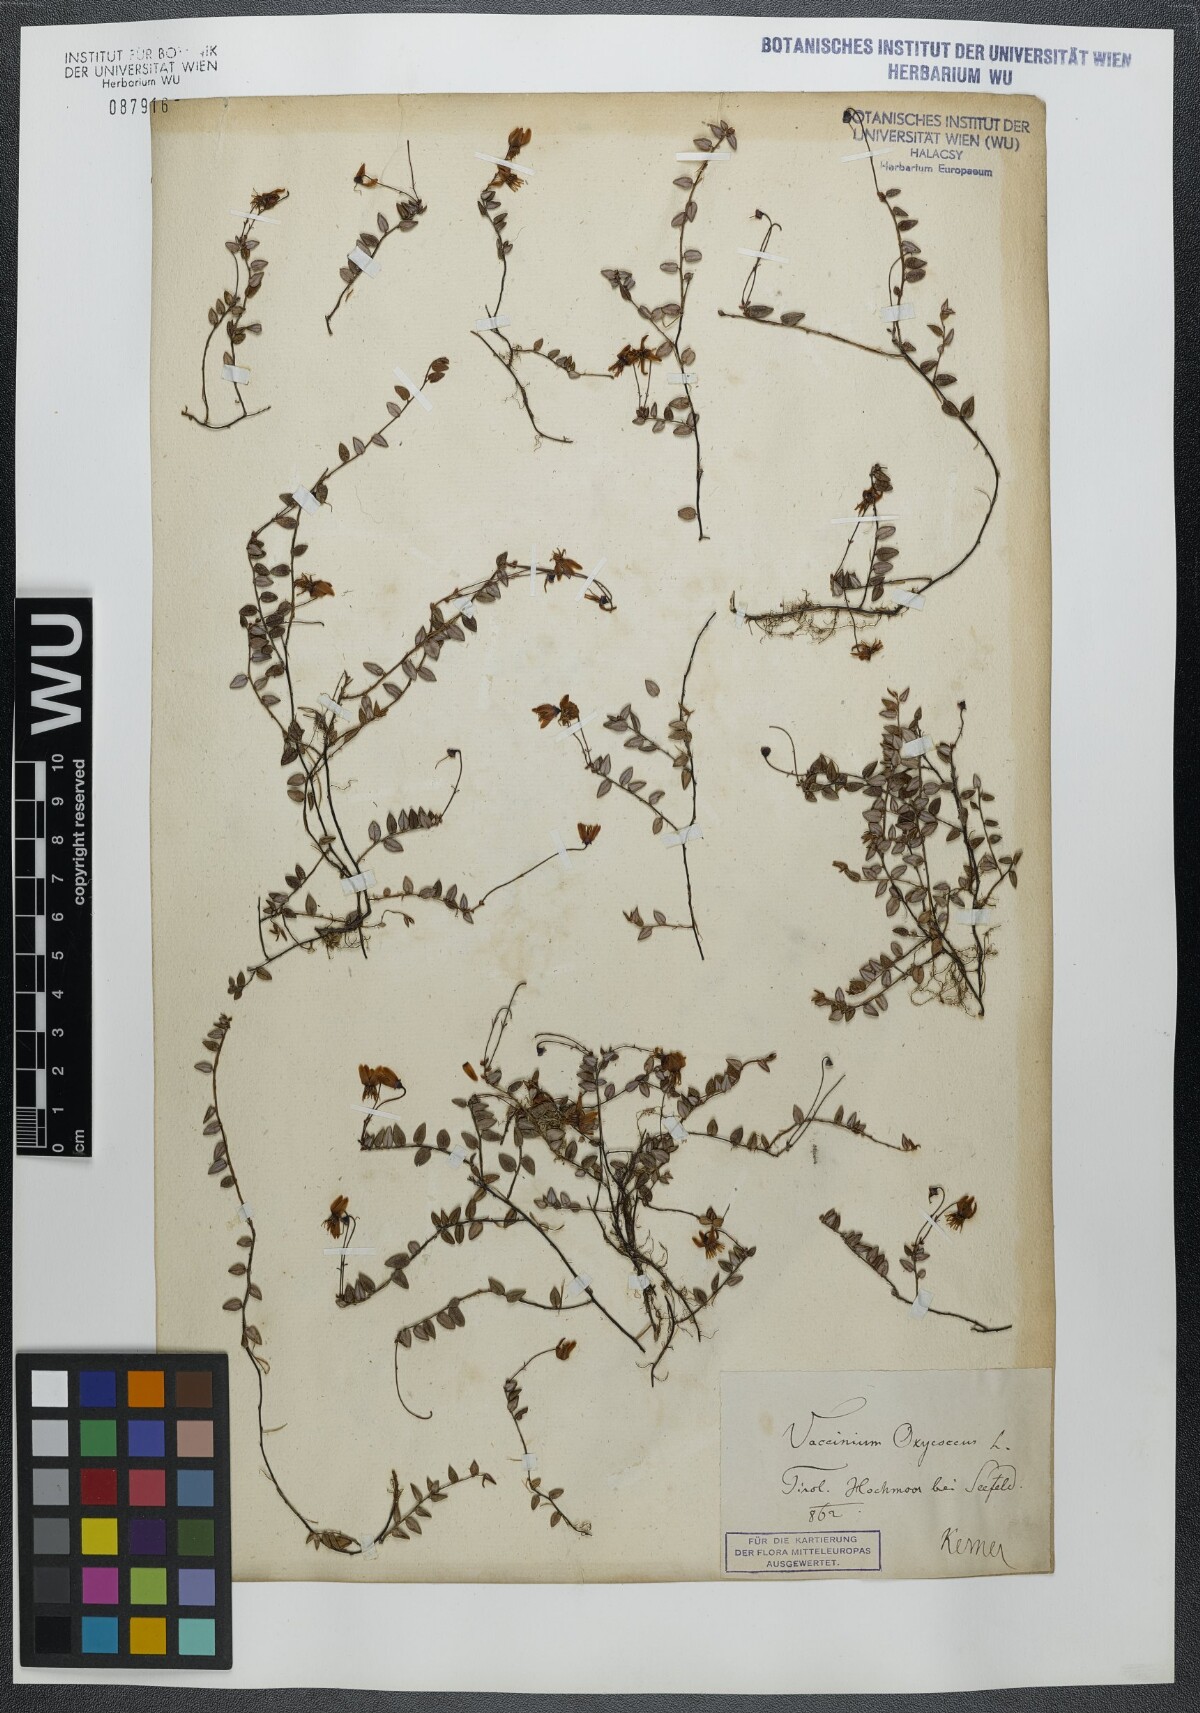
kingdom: Plantae
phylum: Tracheophyta
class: Magnoliopsida
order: Ericales
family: Ericaceae
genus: Vaccinium
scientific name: Vaccinium oxycoccos
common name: Cranberry
